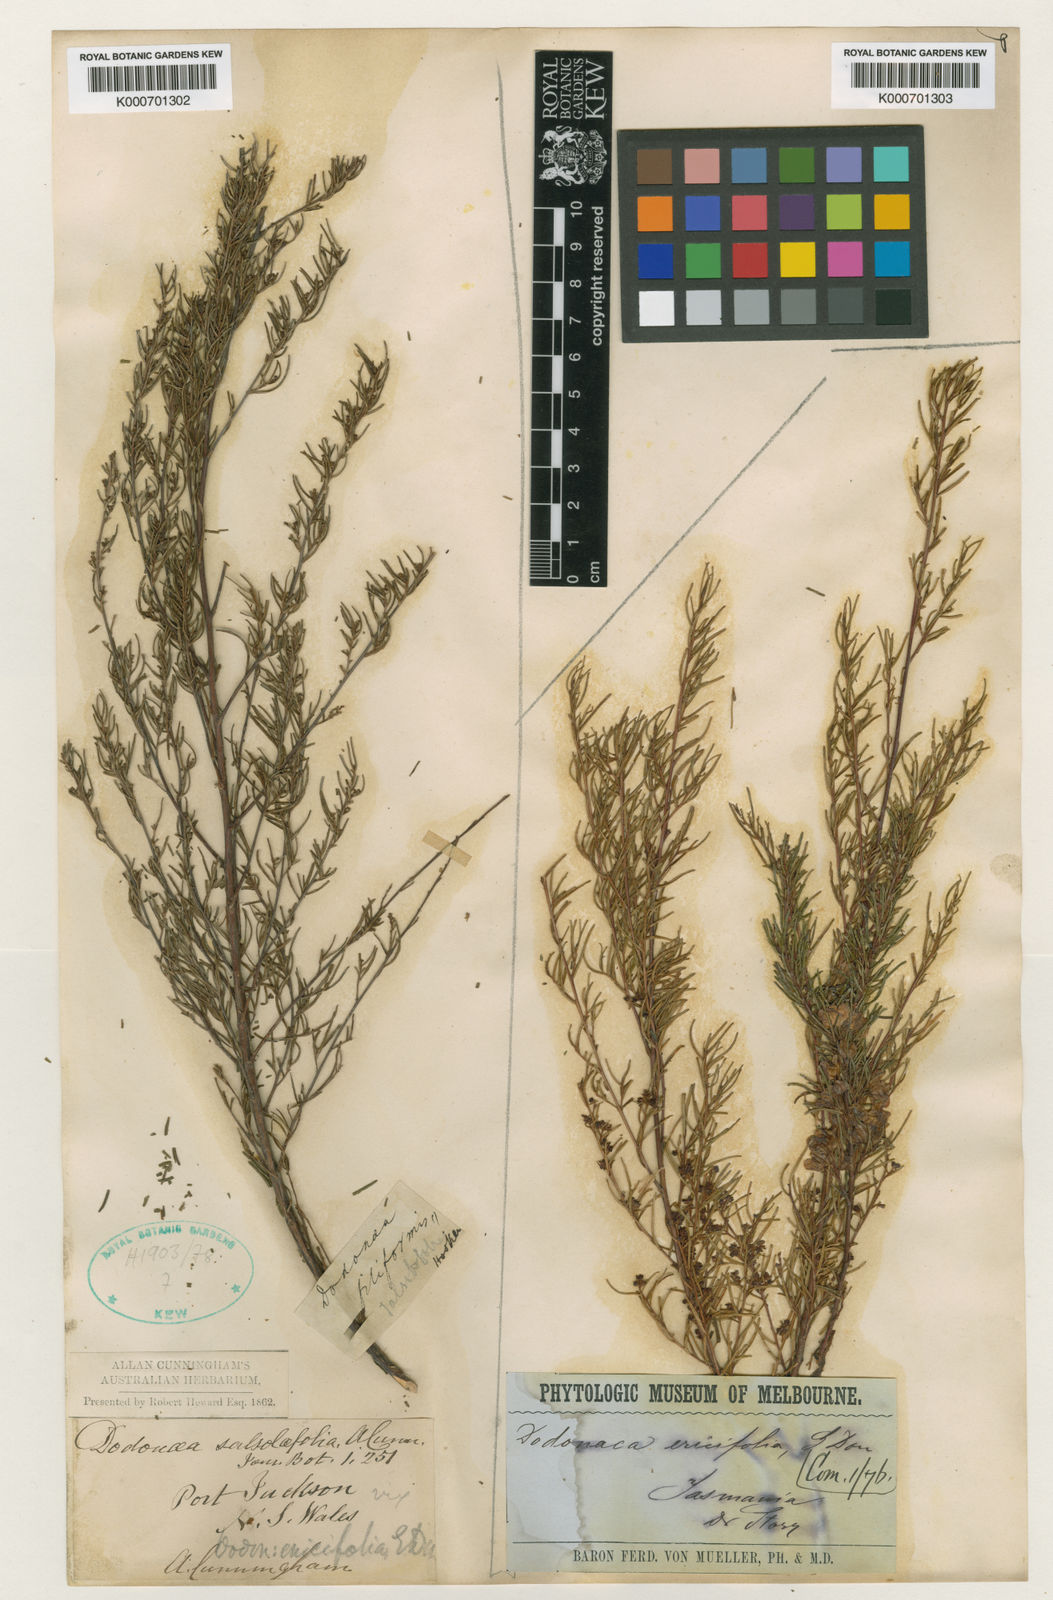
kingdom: Plantae
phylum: Tracheophyta
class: Magnoliopsida
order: Sapindales
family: Sapindaceae
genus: Dodonaea
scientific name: Dodonaea filiformis
